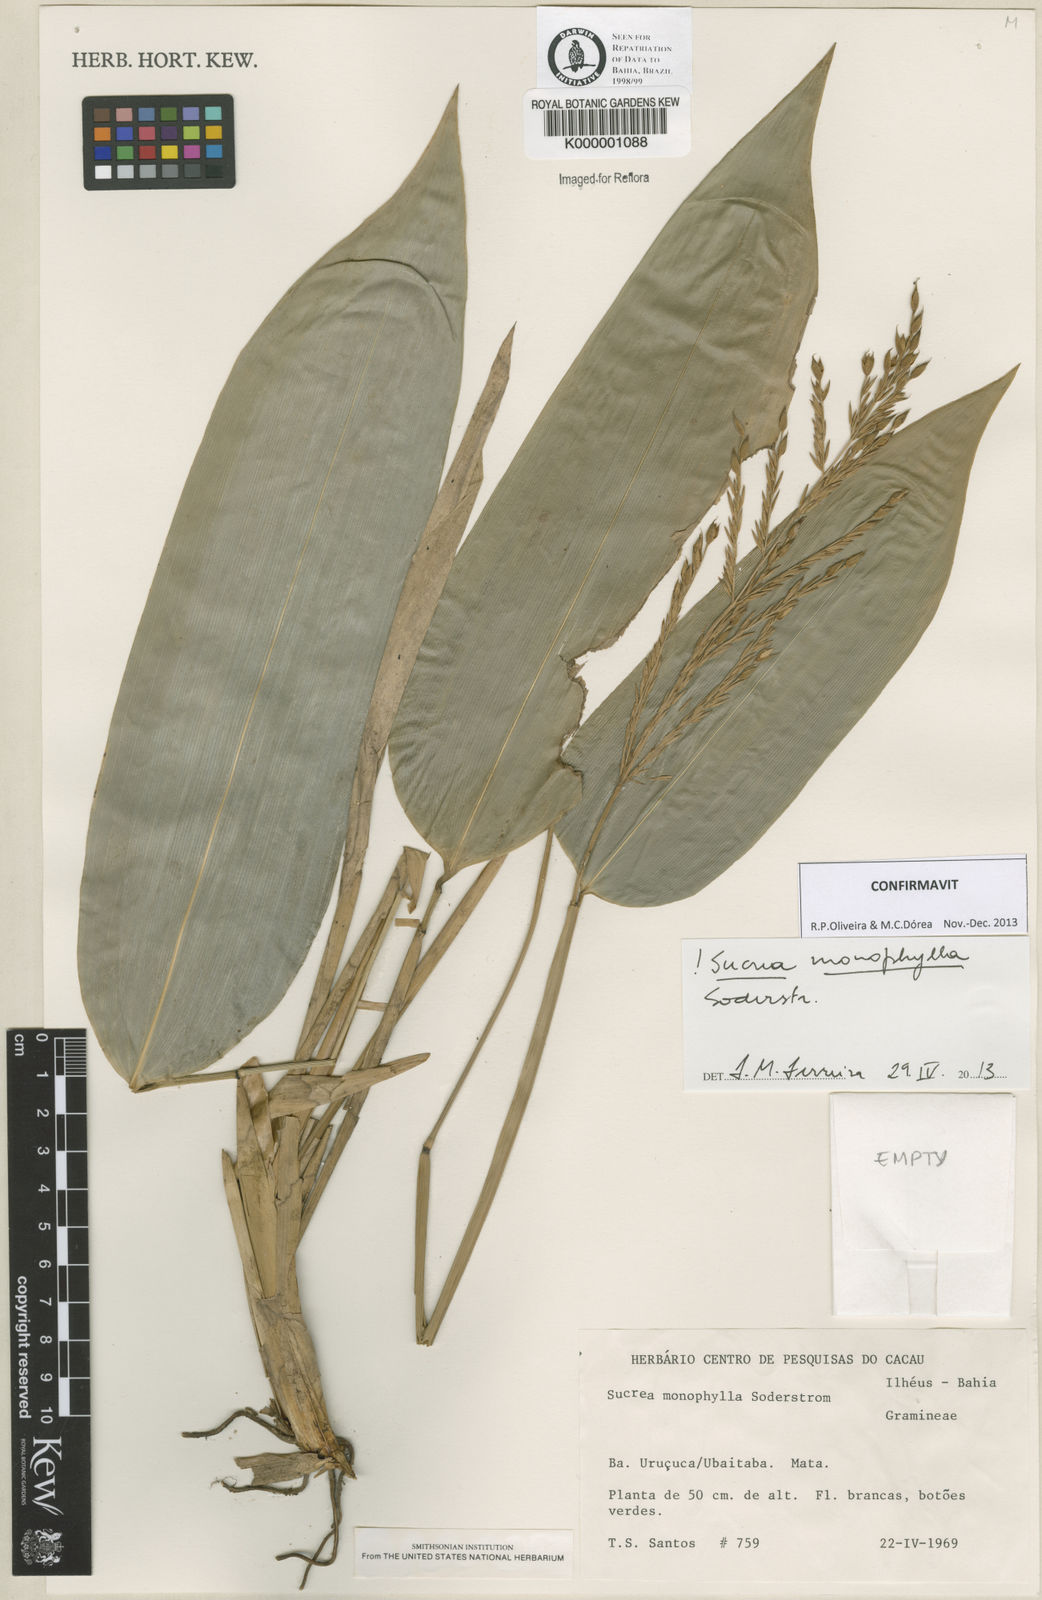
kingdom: Plantae
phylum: Tracheophyta
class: Liliopsida
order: Poales
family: Poaceae
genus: Raddia
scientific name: Raddia monophylla
